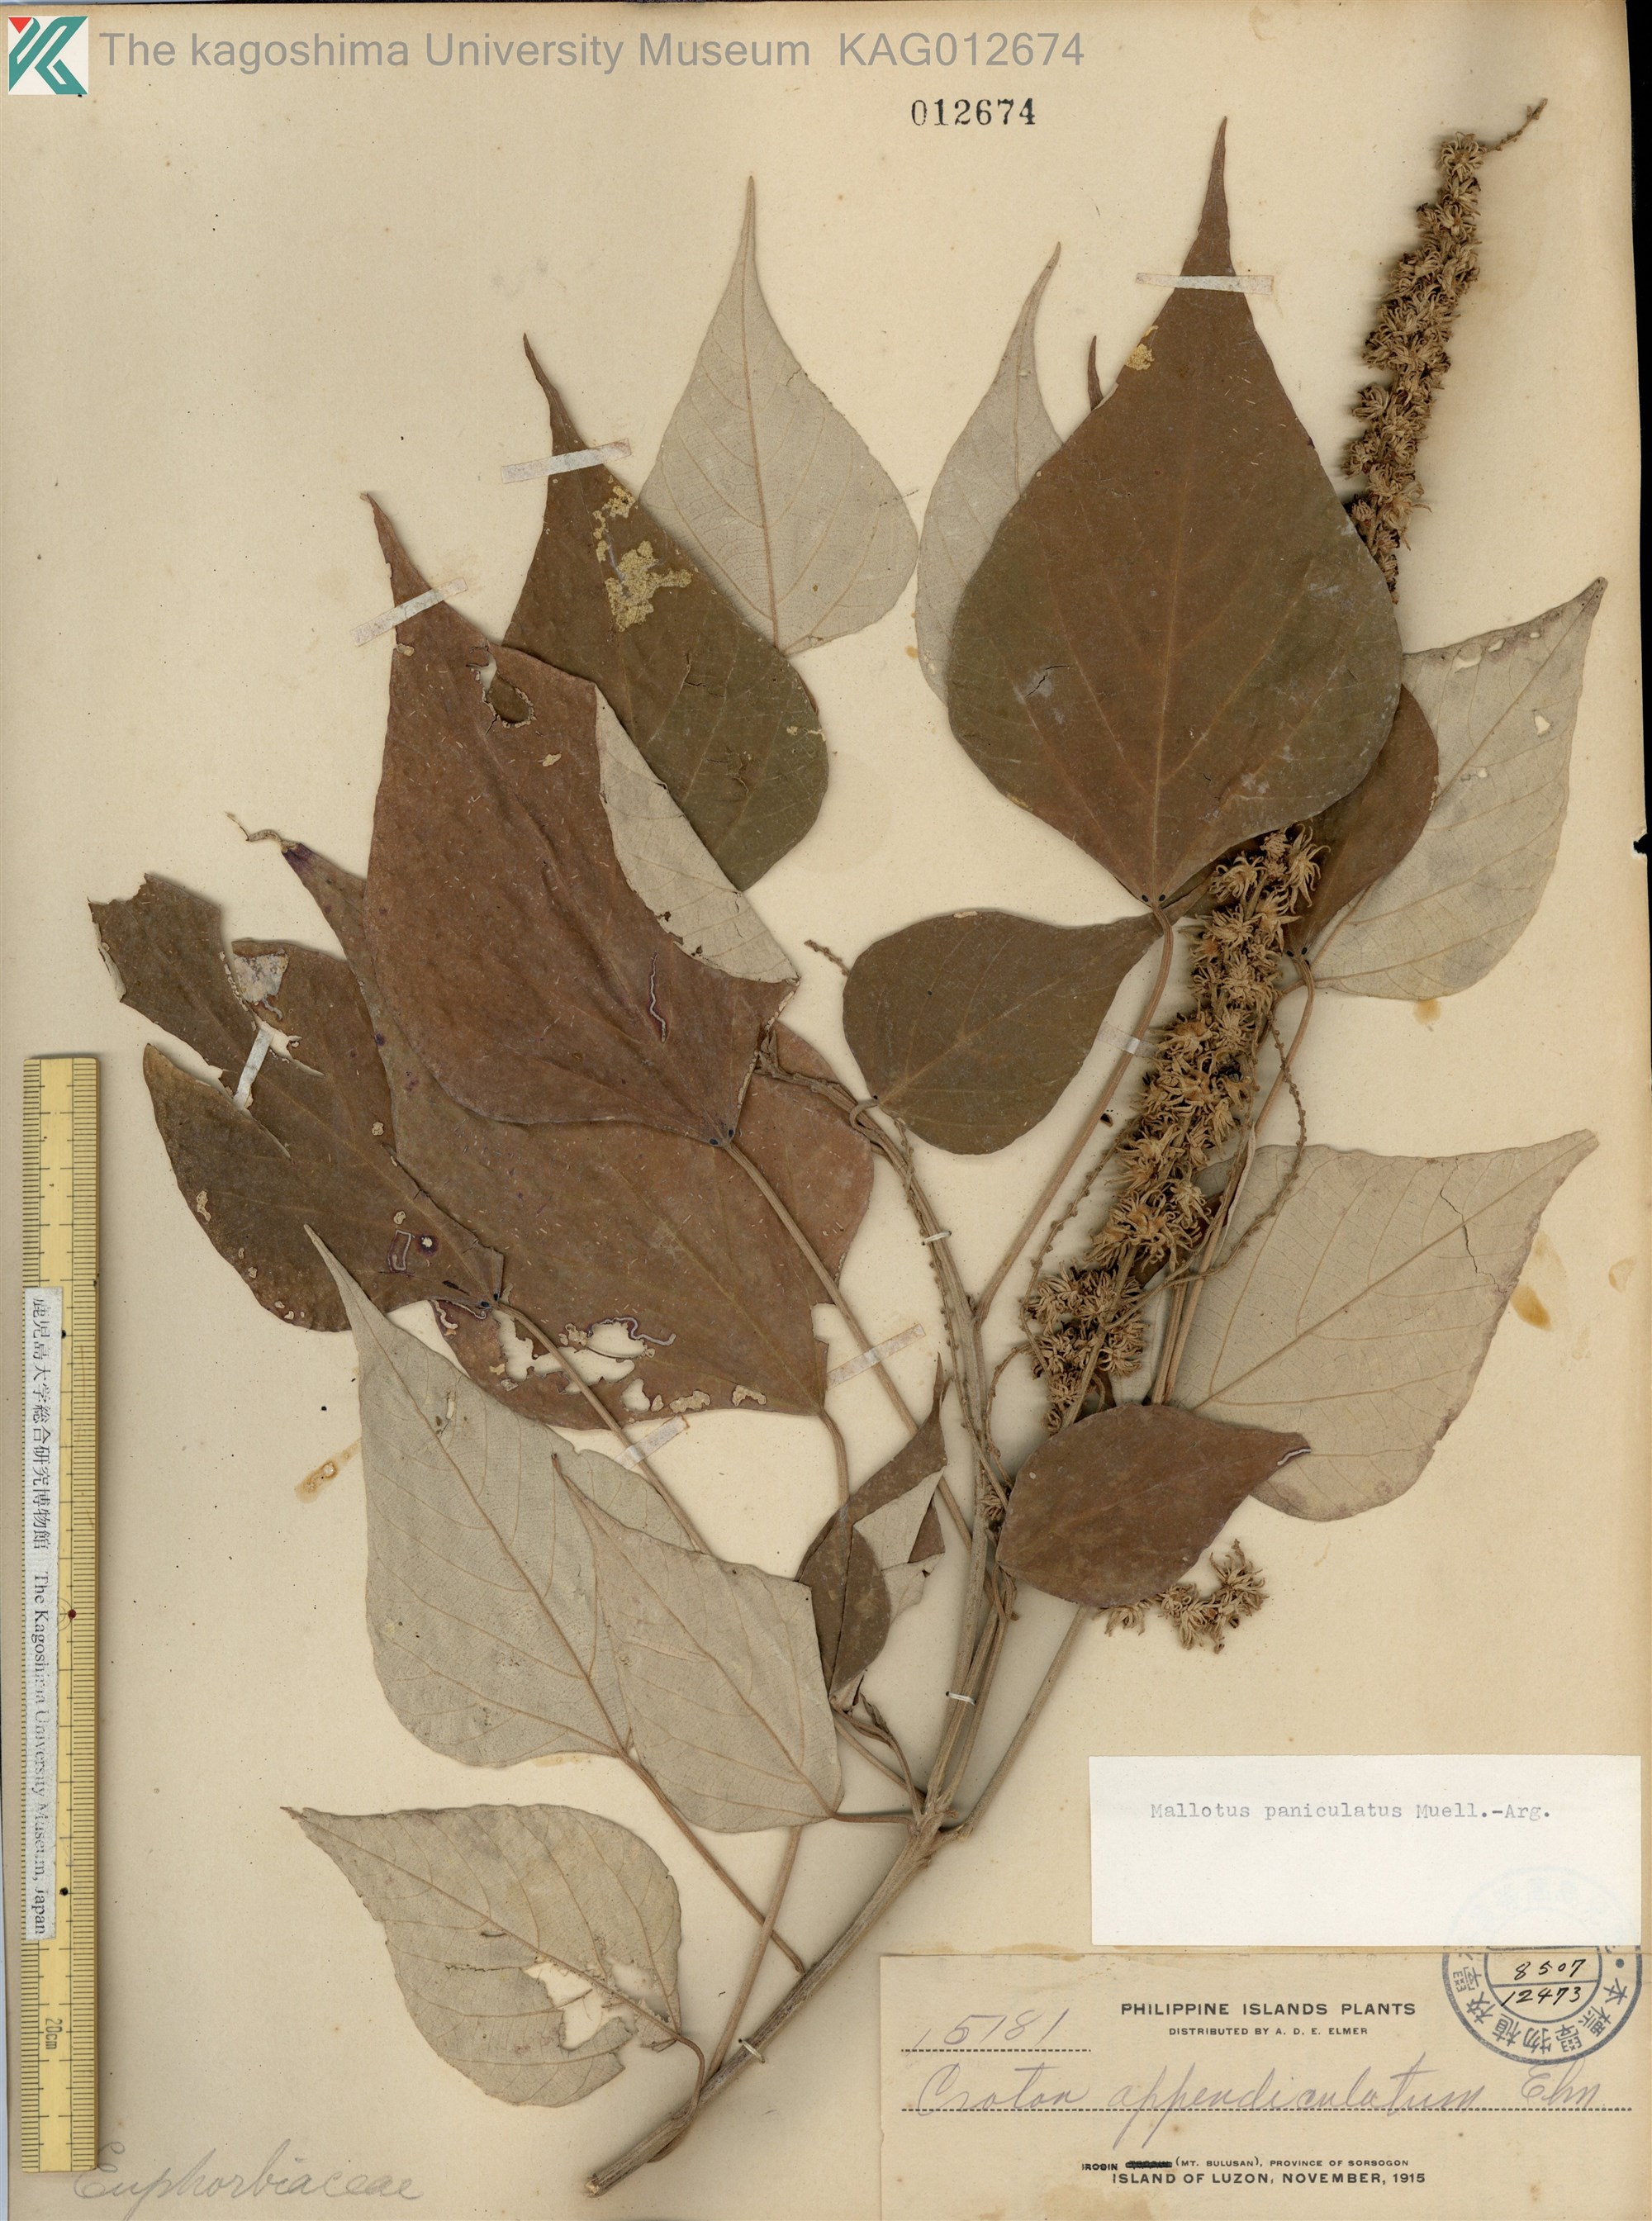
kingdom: Plantae
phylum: Tracheophyta
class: Magnoliopsida
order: Malpighiales
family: Euphorbiaceae
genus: Mallotus
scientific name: Mallotus paniculatus
